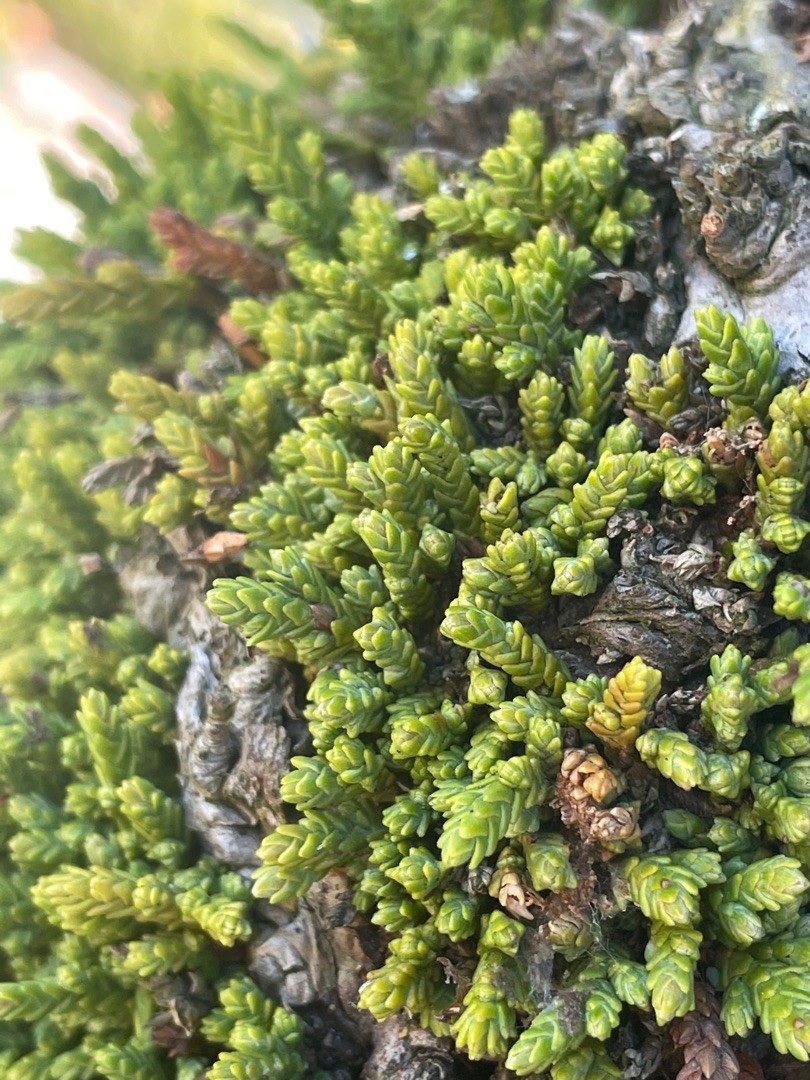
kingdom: Plantae
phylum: Tracheophyta
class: Magnoliopsida
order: Saxifragales
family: Crassulaceae
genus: Sedum
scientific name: Sedum acre
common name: Bidende stenurt
